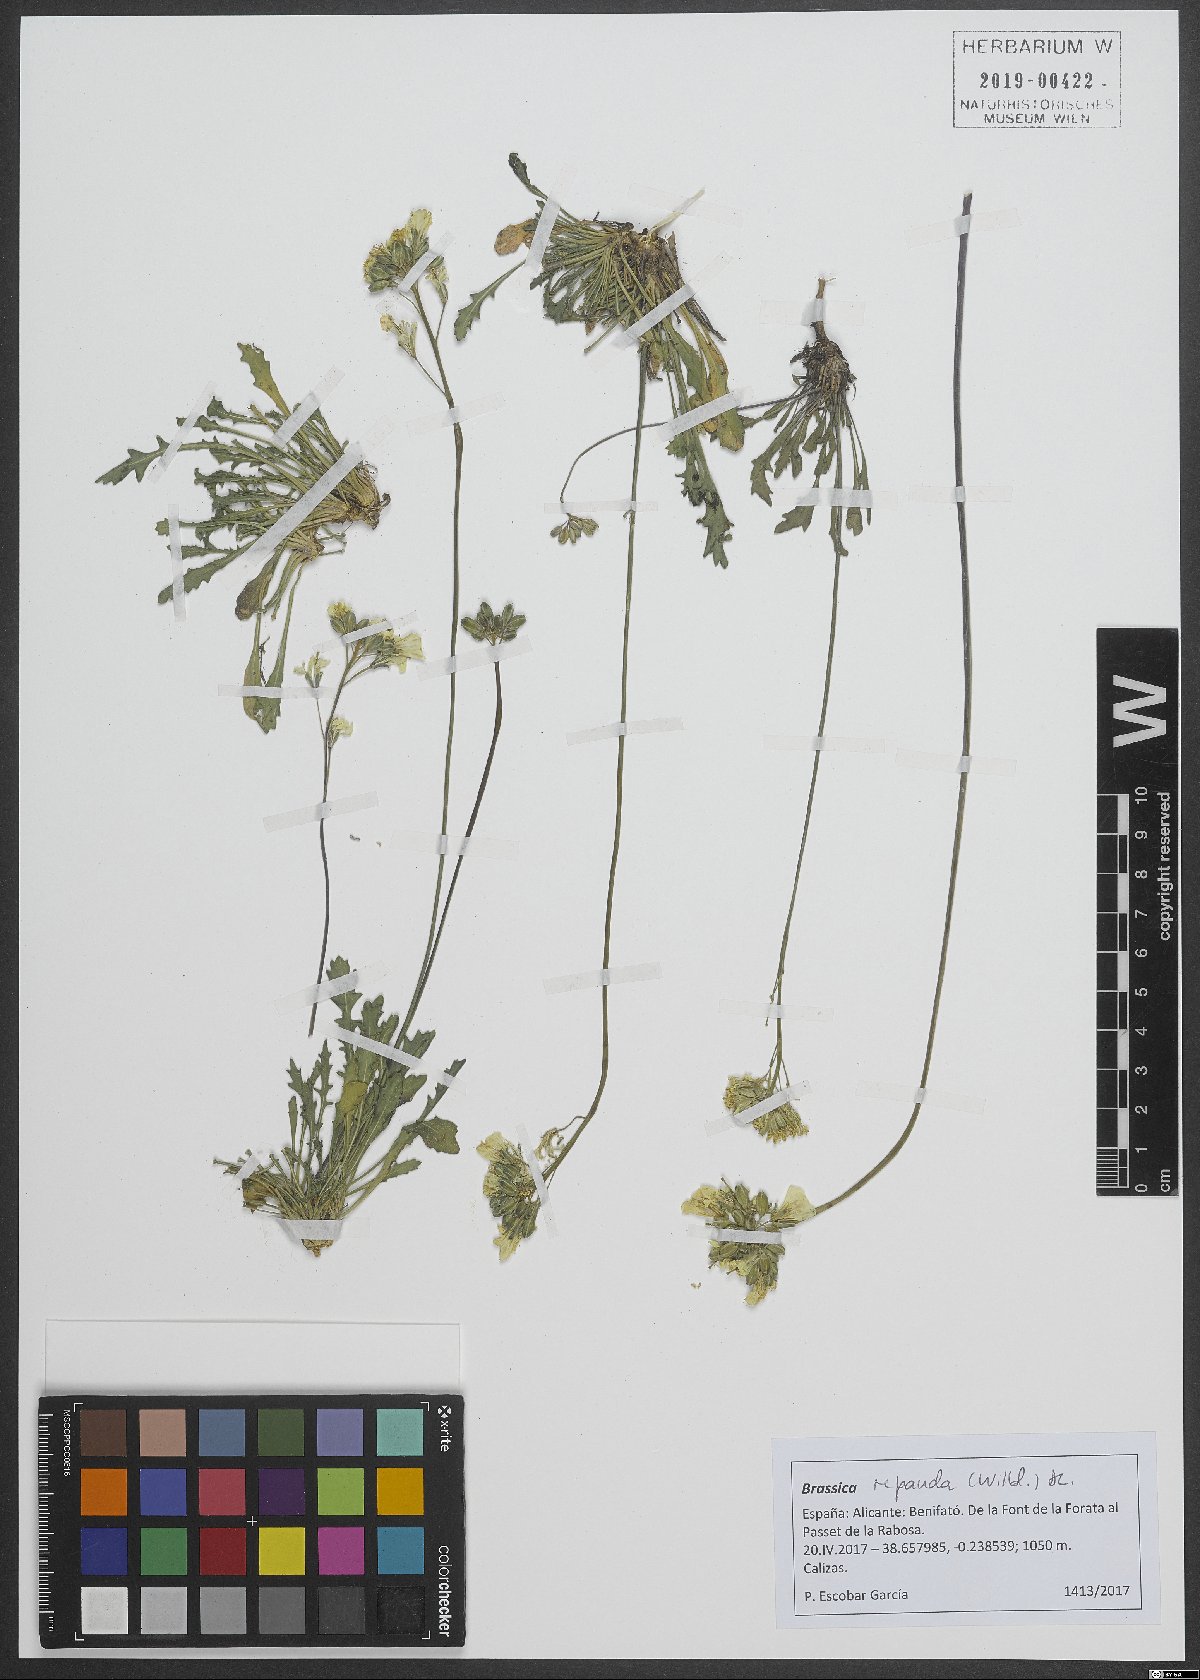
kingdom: Plantae
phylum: Tracheophyta
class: Magnoliopsida
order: Brassicales
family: Brassicaceae
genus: Brassica
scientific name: Brassica repanda
